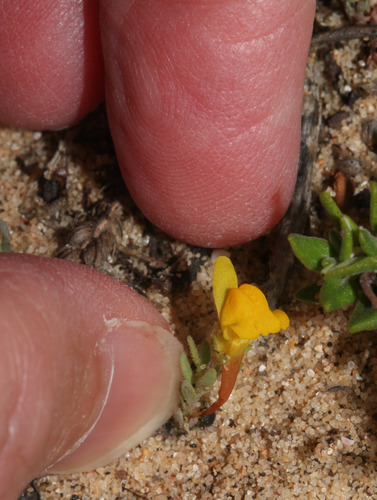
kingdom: Plantae
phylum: Tracheophyta
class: Magnoliopsida
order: Lamiales
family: Plantaginaceae
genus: Linaria
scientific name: Linaria bipunctata
